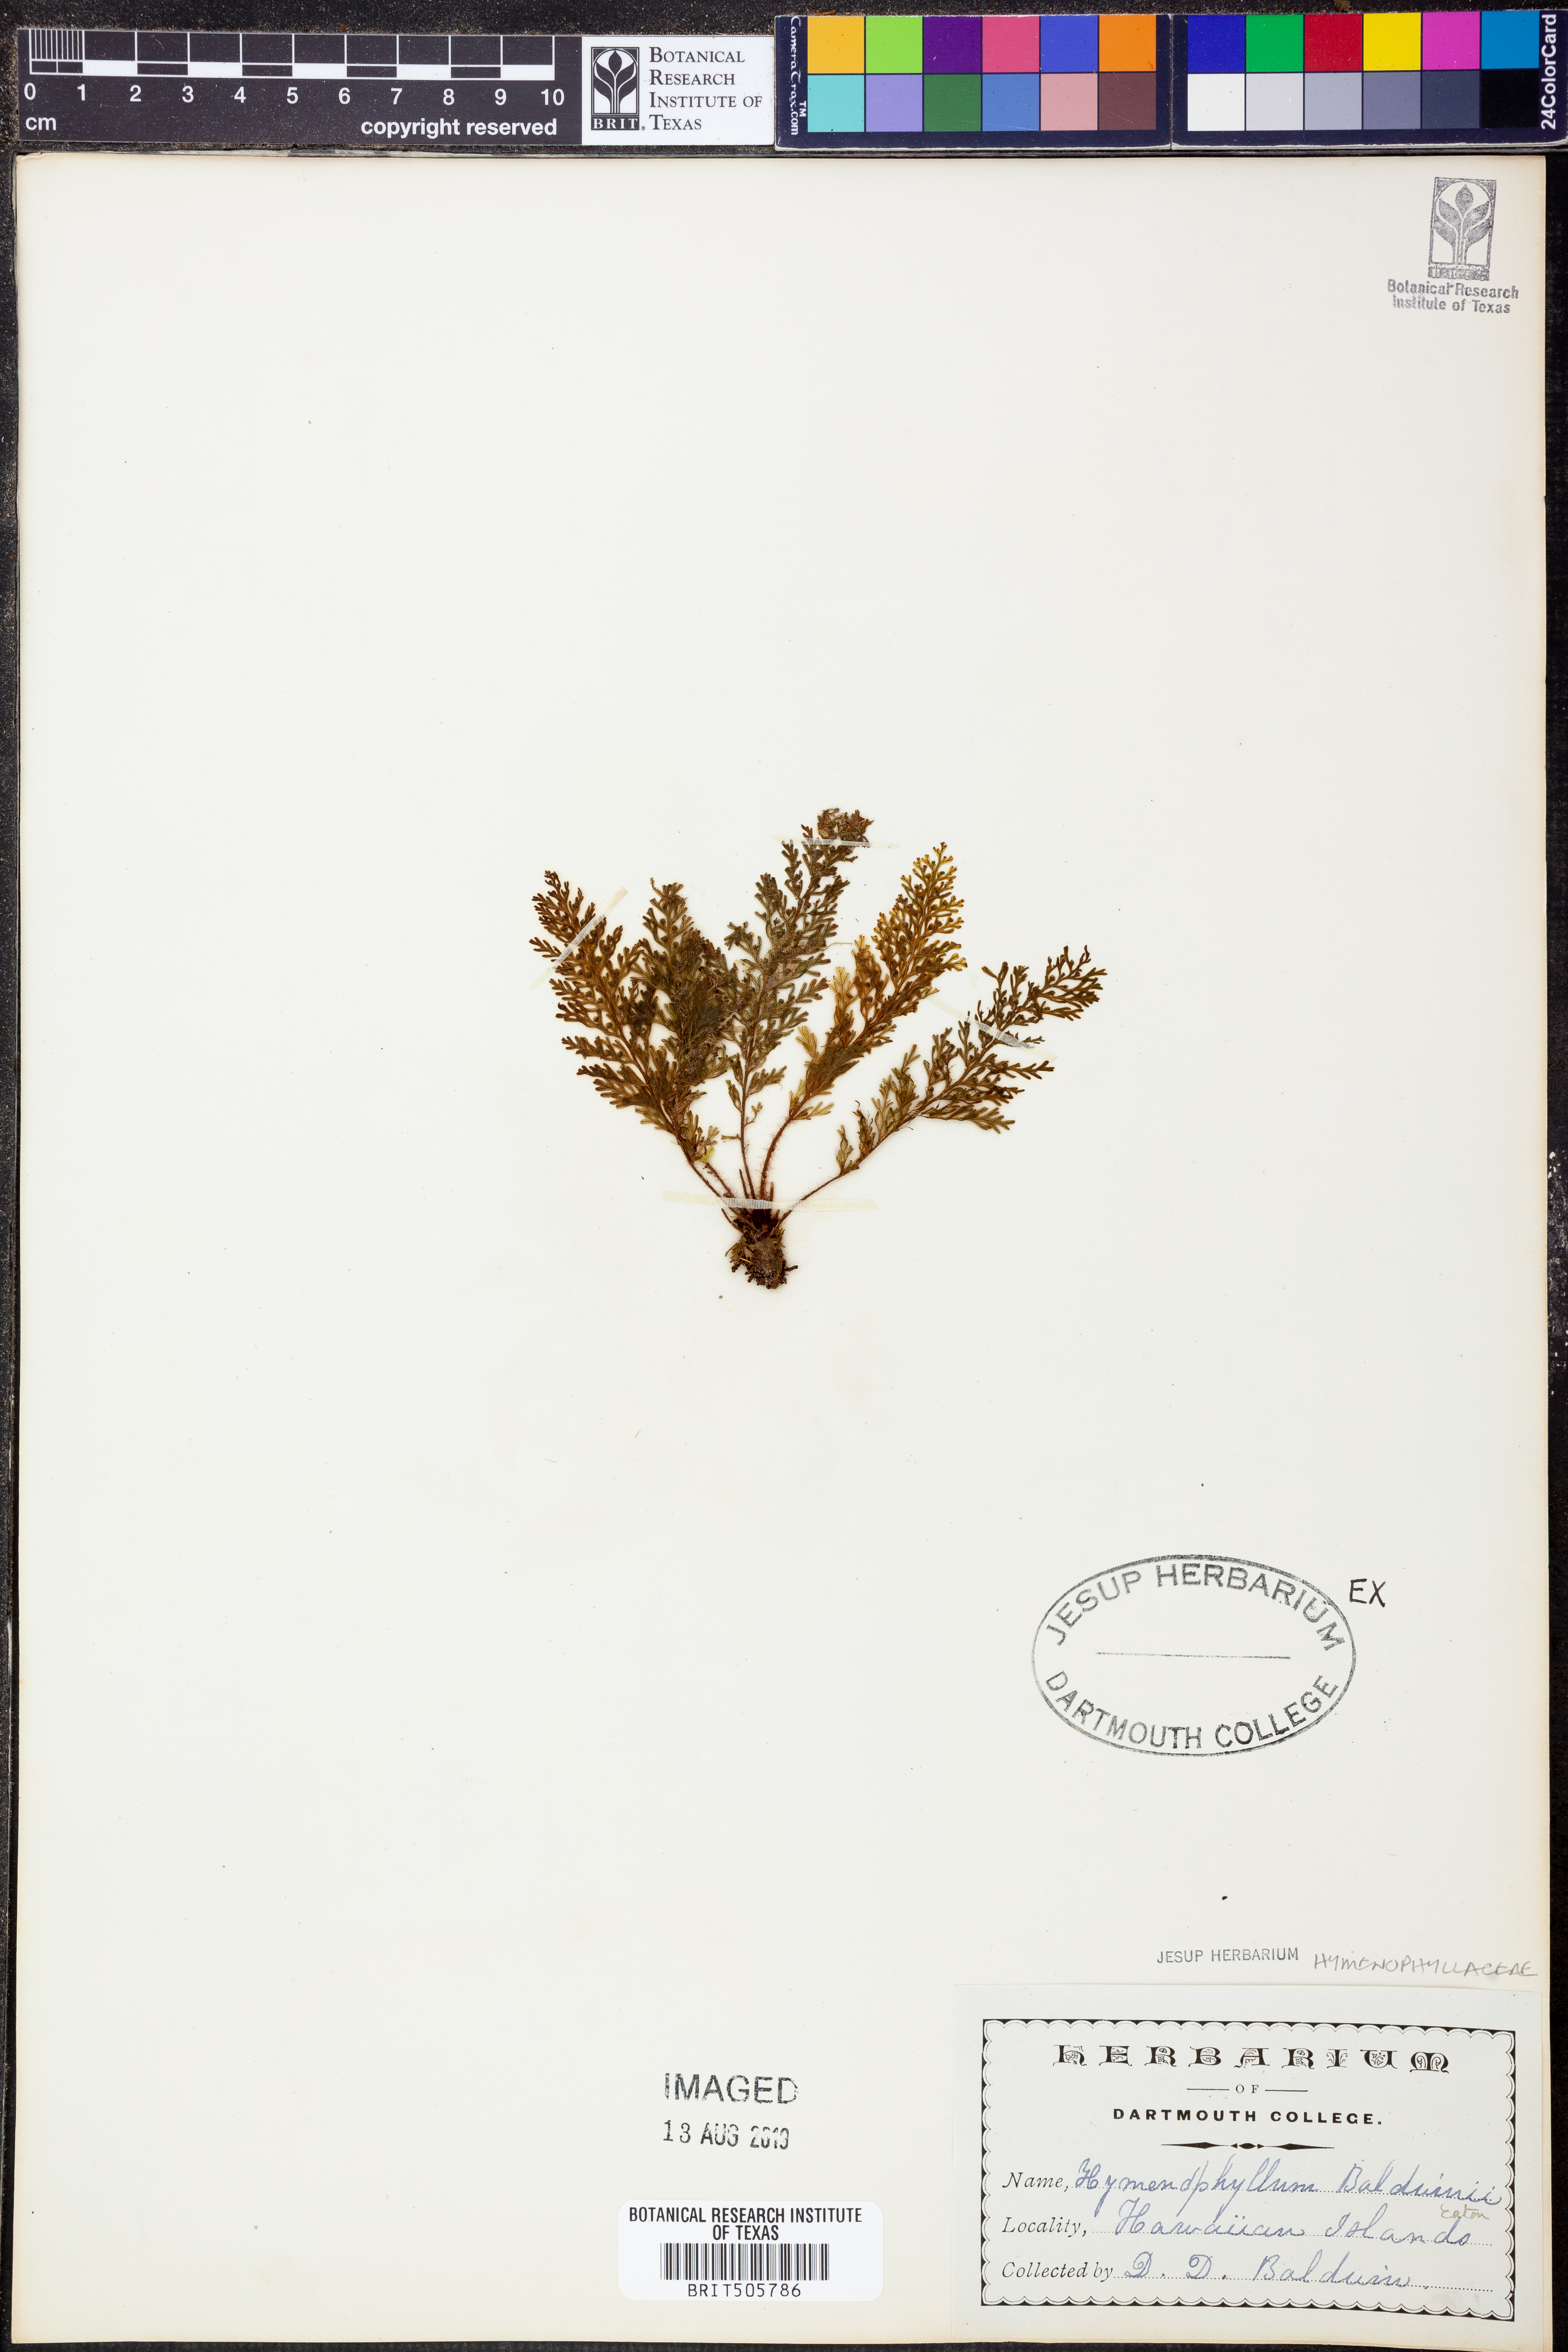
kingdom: Plantae
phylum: Tracheophyta
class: Polypodiopsida
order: Hymenophyllales
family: Hymenophyllaceae
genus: Callistopteris
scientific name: Callistopteris baldwinii
